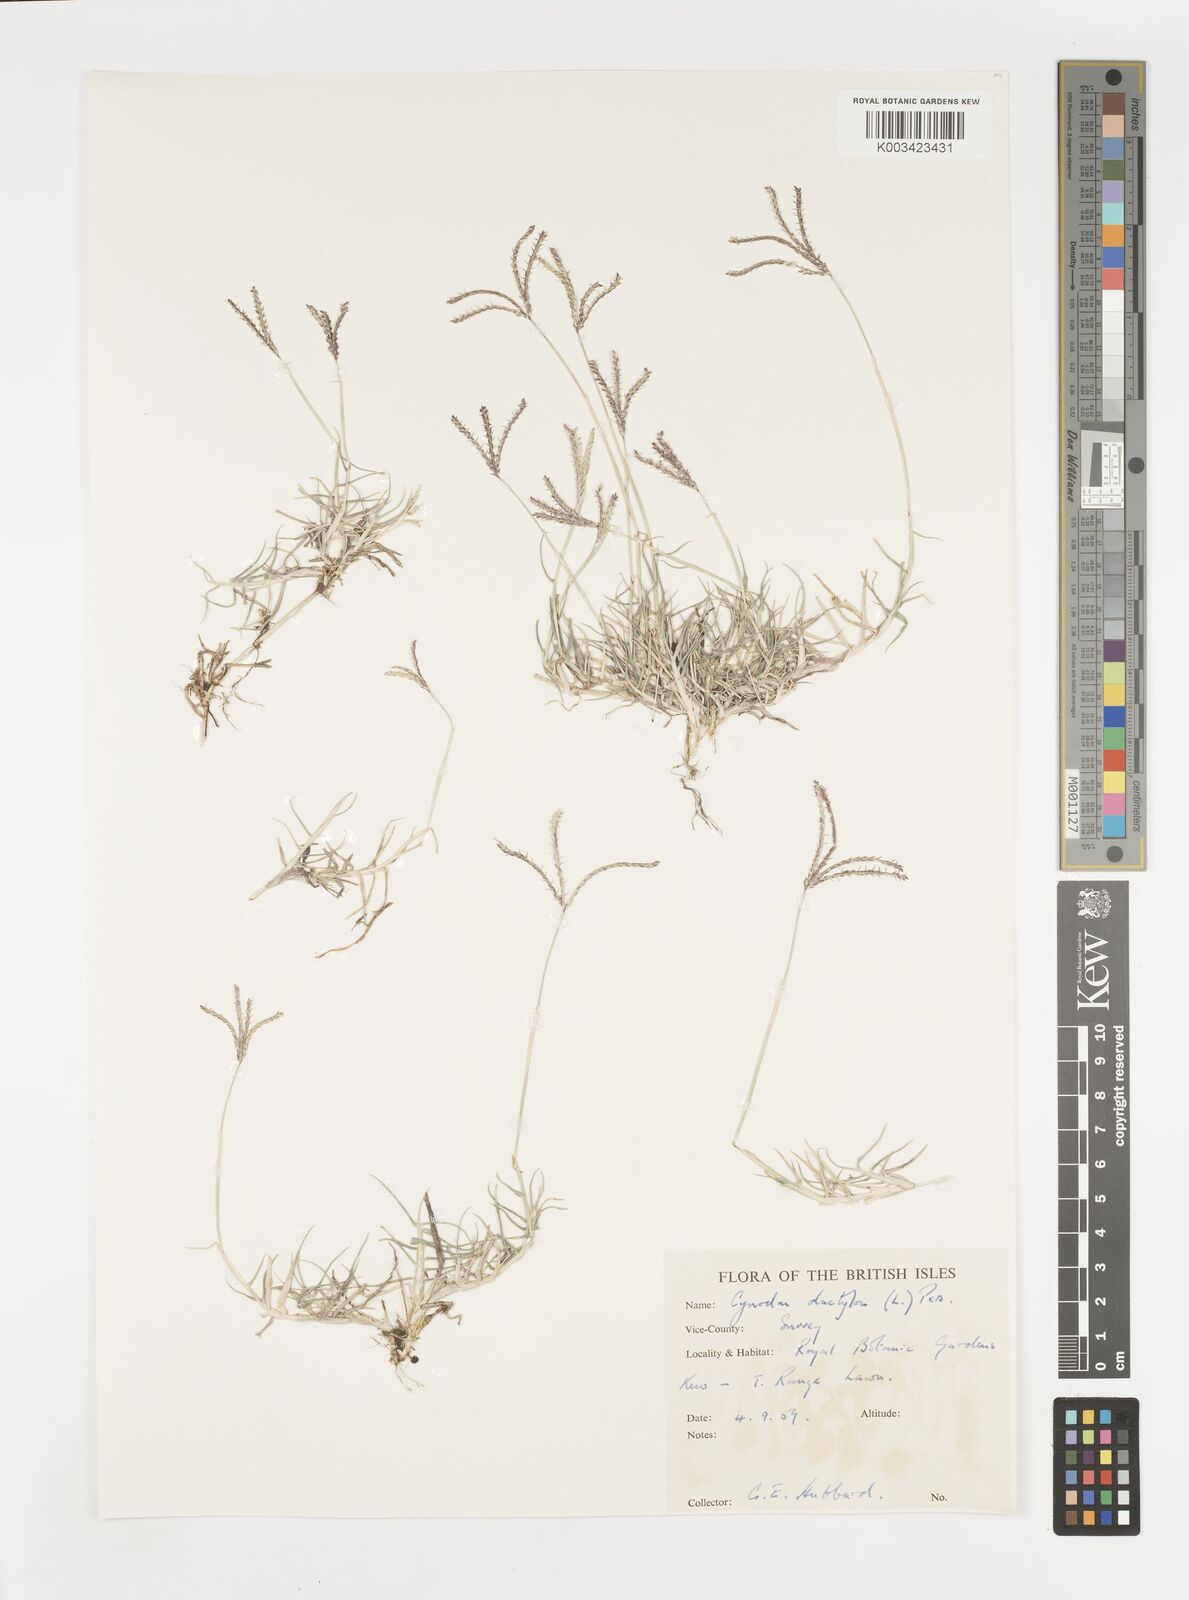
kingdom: Plantae
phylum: Tracheophyta
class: Liliopsida
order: Poales
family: Poaceae
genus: Cynodon
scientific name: Cynodon dactylon
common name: Bermuda grass
